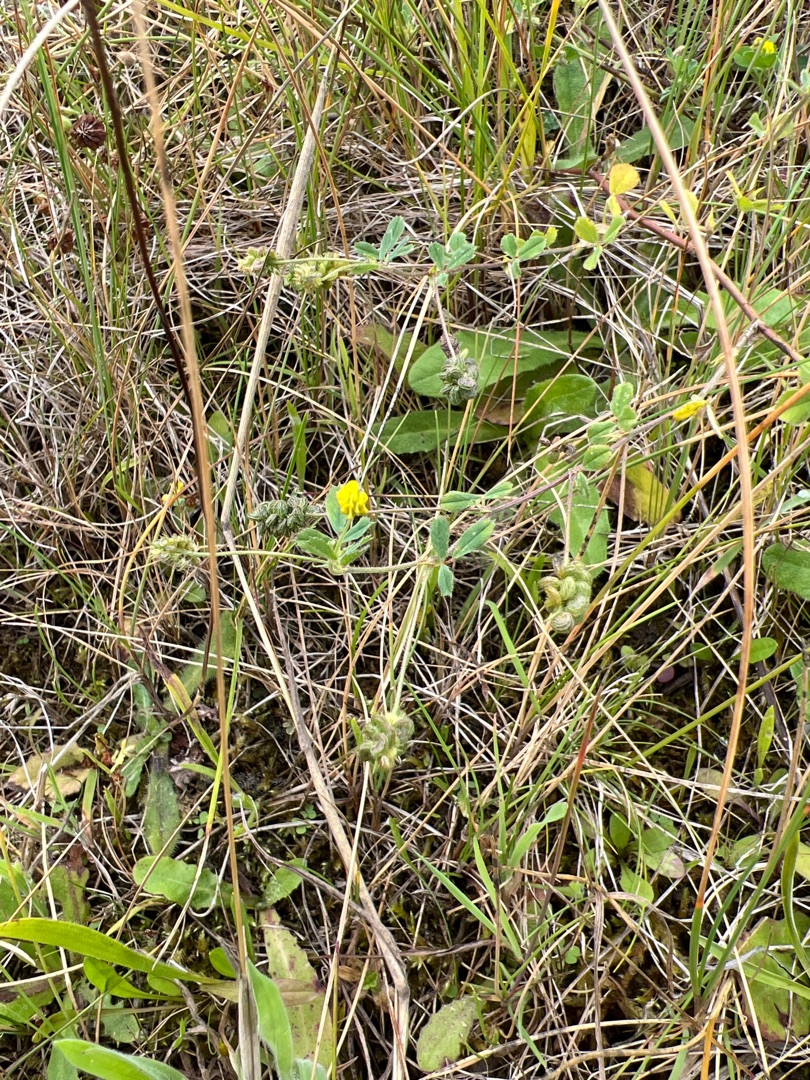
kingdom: Plantae
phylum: Tracheophyta
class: Magnoliopsida
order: Fabales
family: Fabaceae
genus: Medicago
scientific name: Medicago lupulina
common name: Humle-sneglebælg
